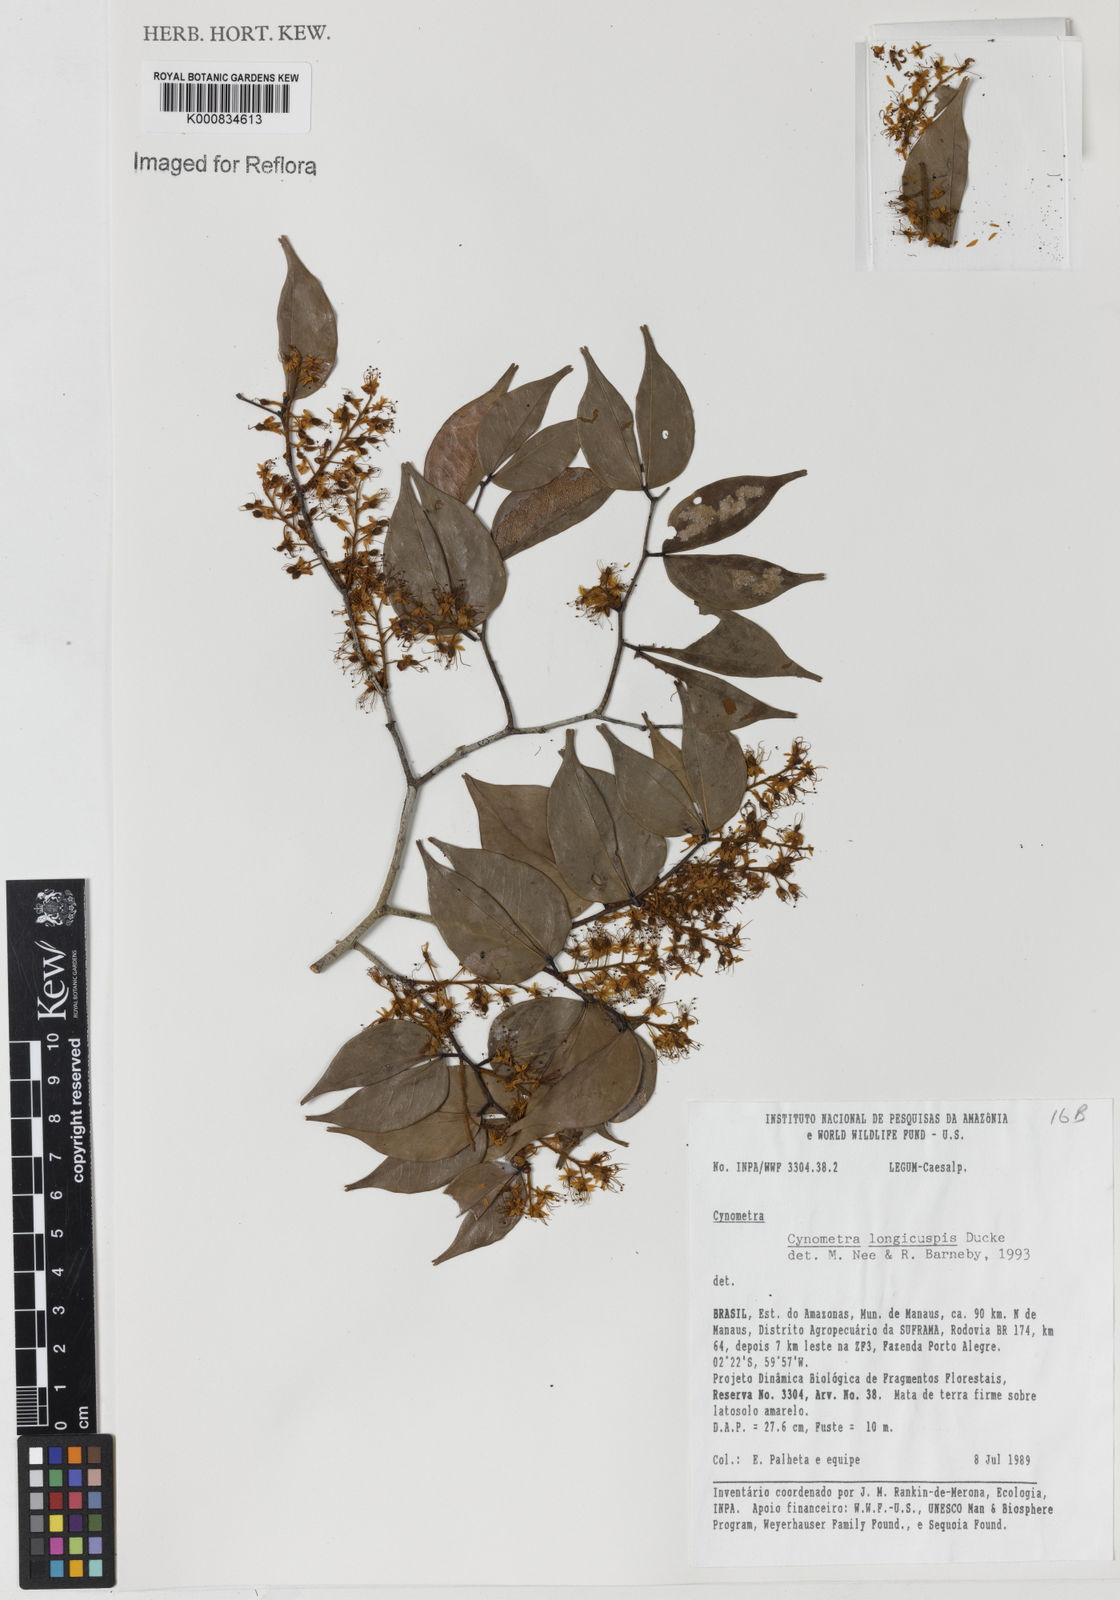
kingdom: Plantae
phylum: Tracheophyta
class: Magnoliopsida
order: Fabales
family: Fabaceae
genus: Cynometra
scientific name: Cynometra longicuspis
